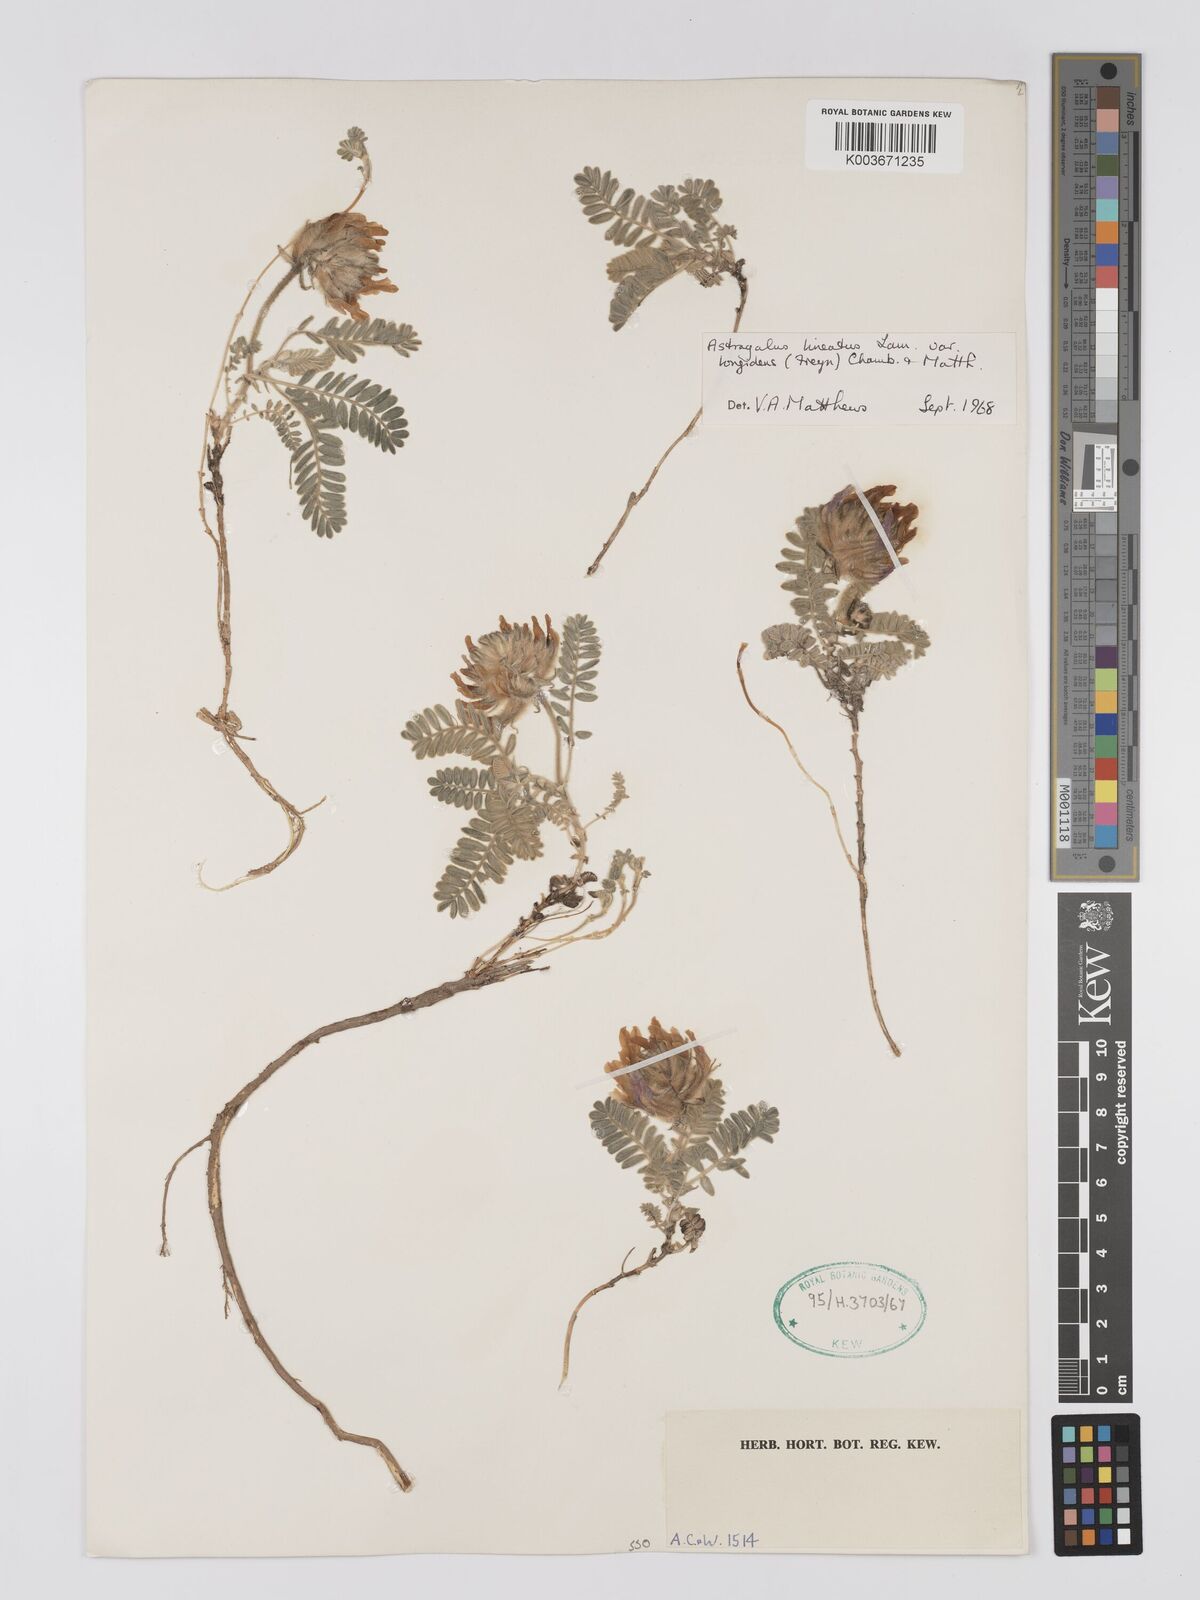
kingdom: Plantae
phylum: Tracheophyta
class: Magnoliopsida
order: Fabales
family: Fabaceae
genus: Astragalus
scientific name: Astragalus lineatus
